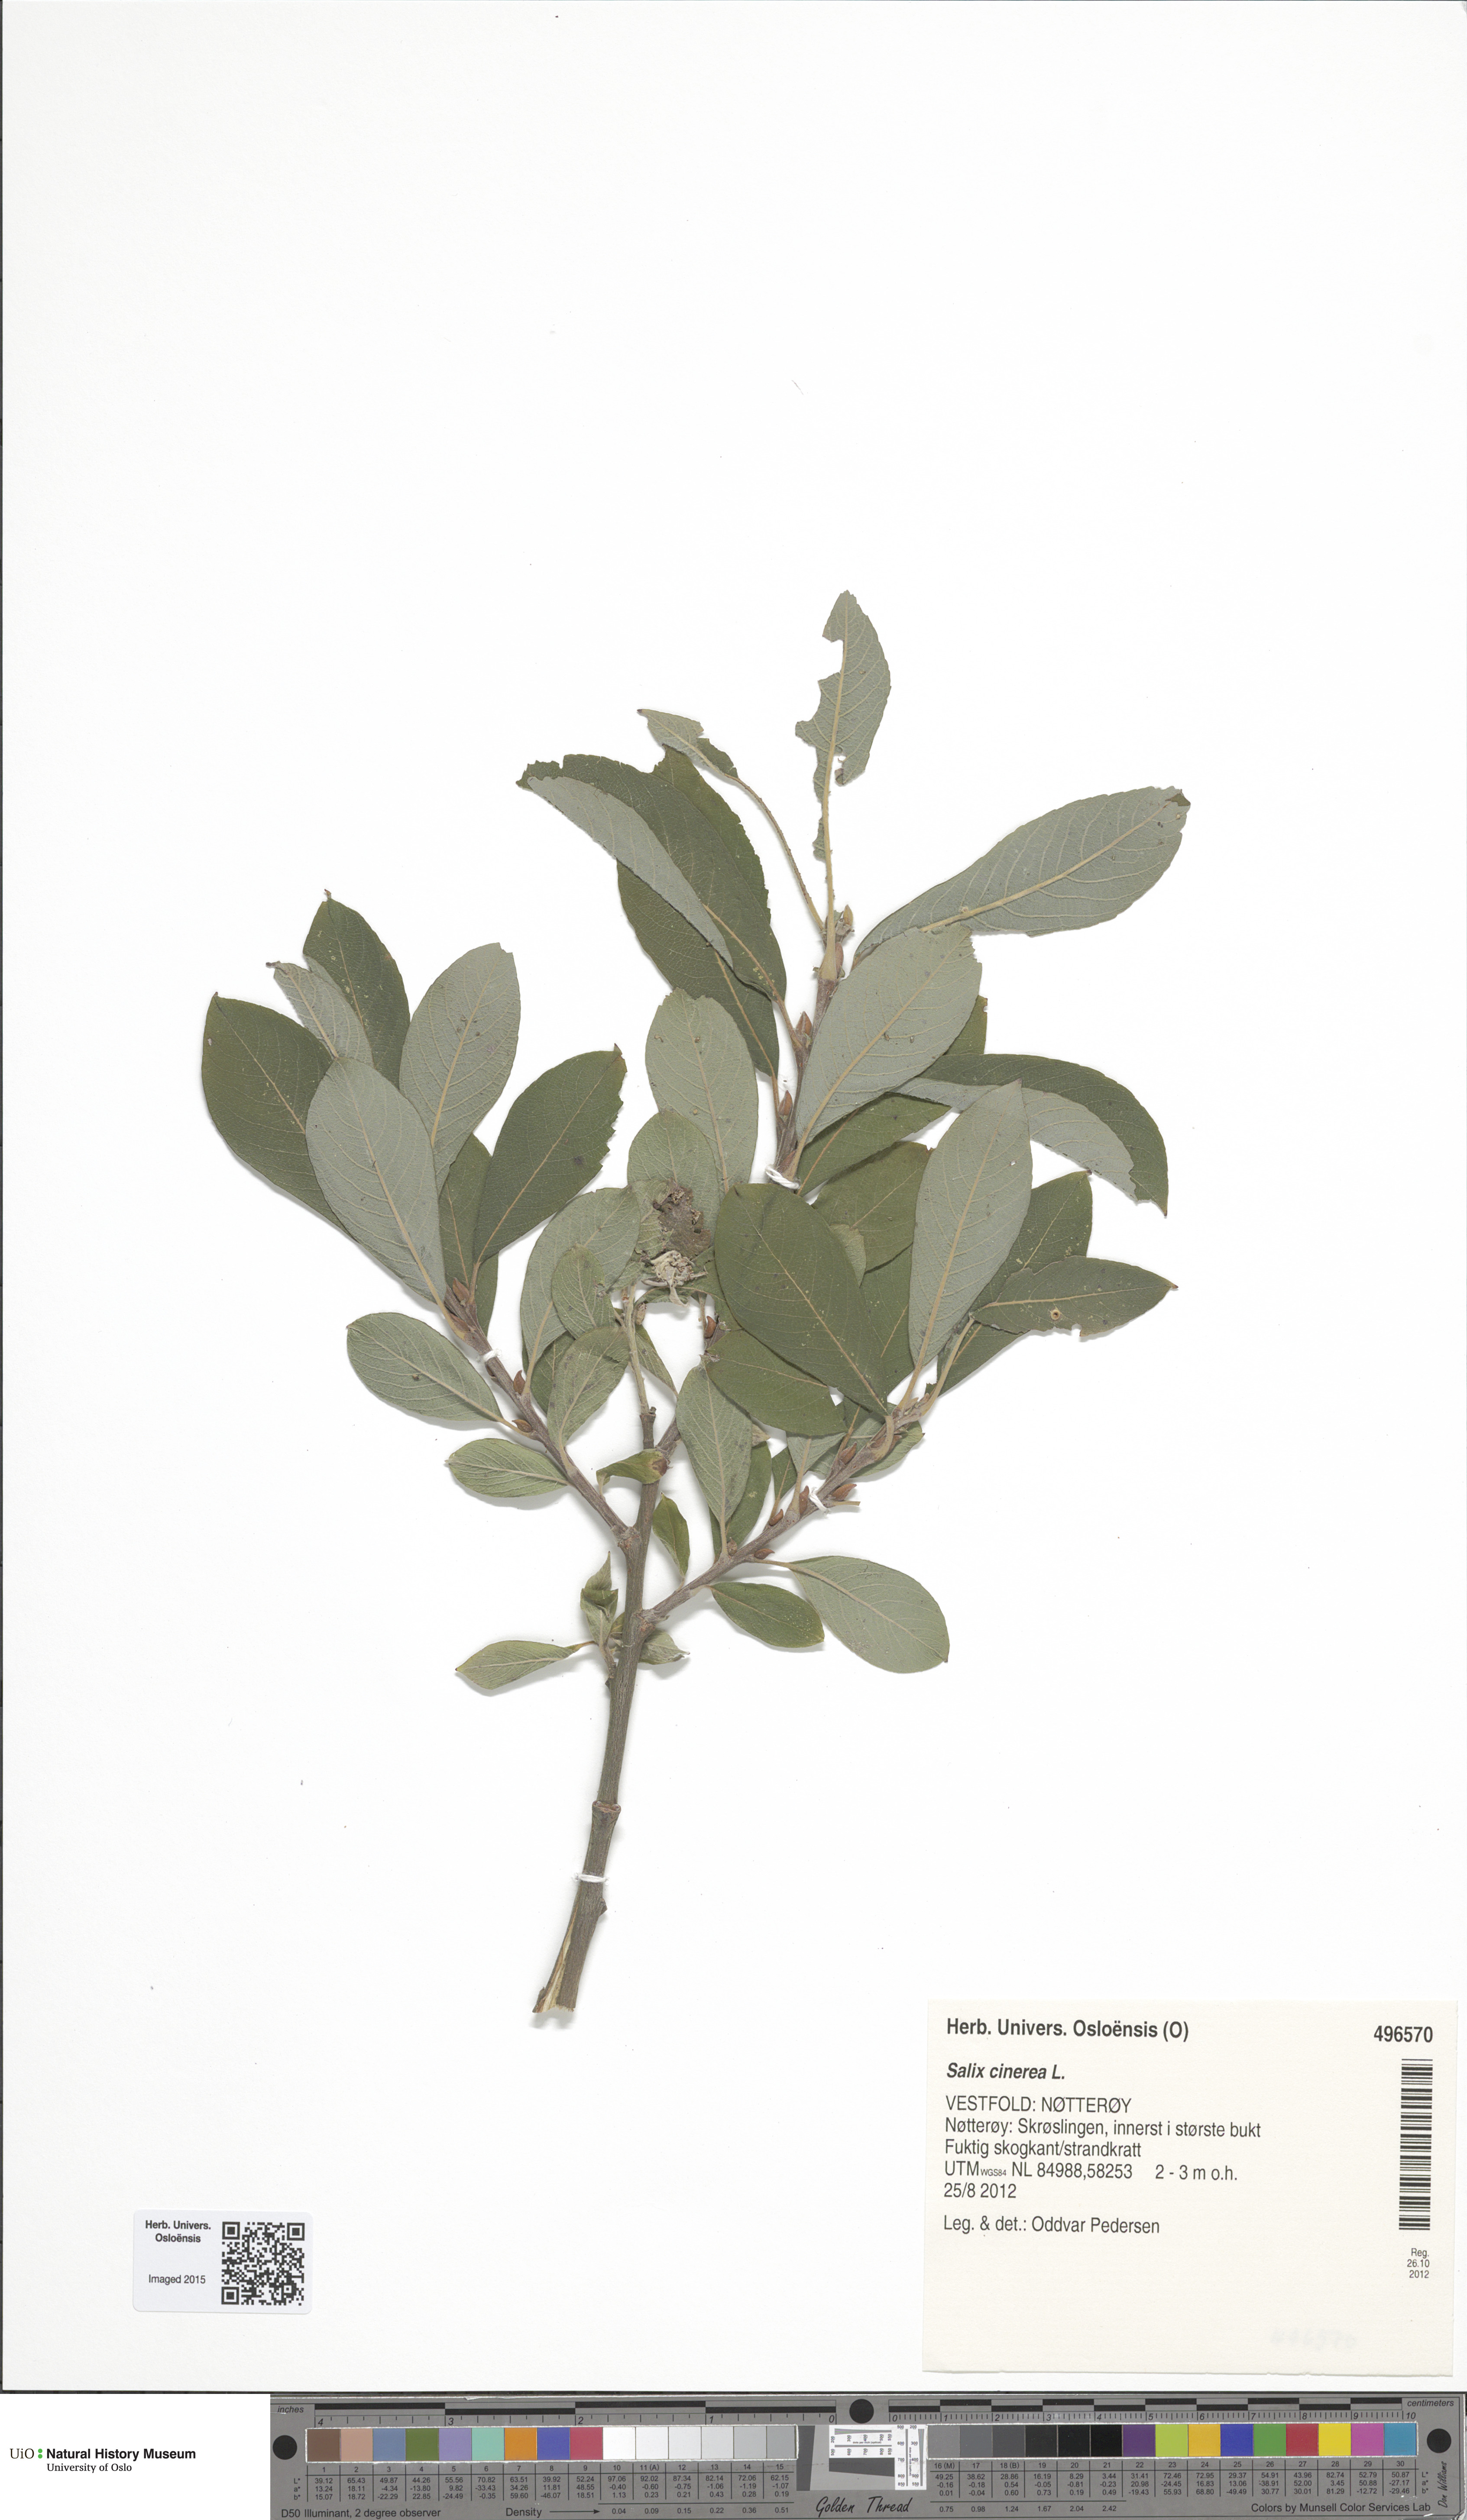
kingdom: Plantae
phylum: Tracheophyta
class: Magnoliopsida
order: Malpighiales
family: Salicaceae
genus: Salix
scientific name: Salix cinerea
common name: Common sallow
